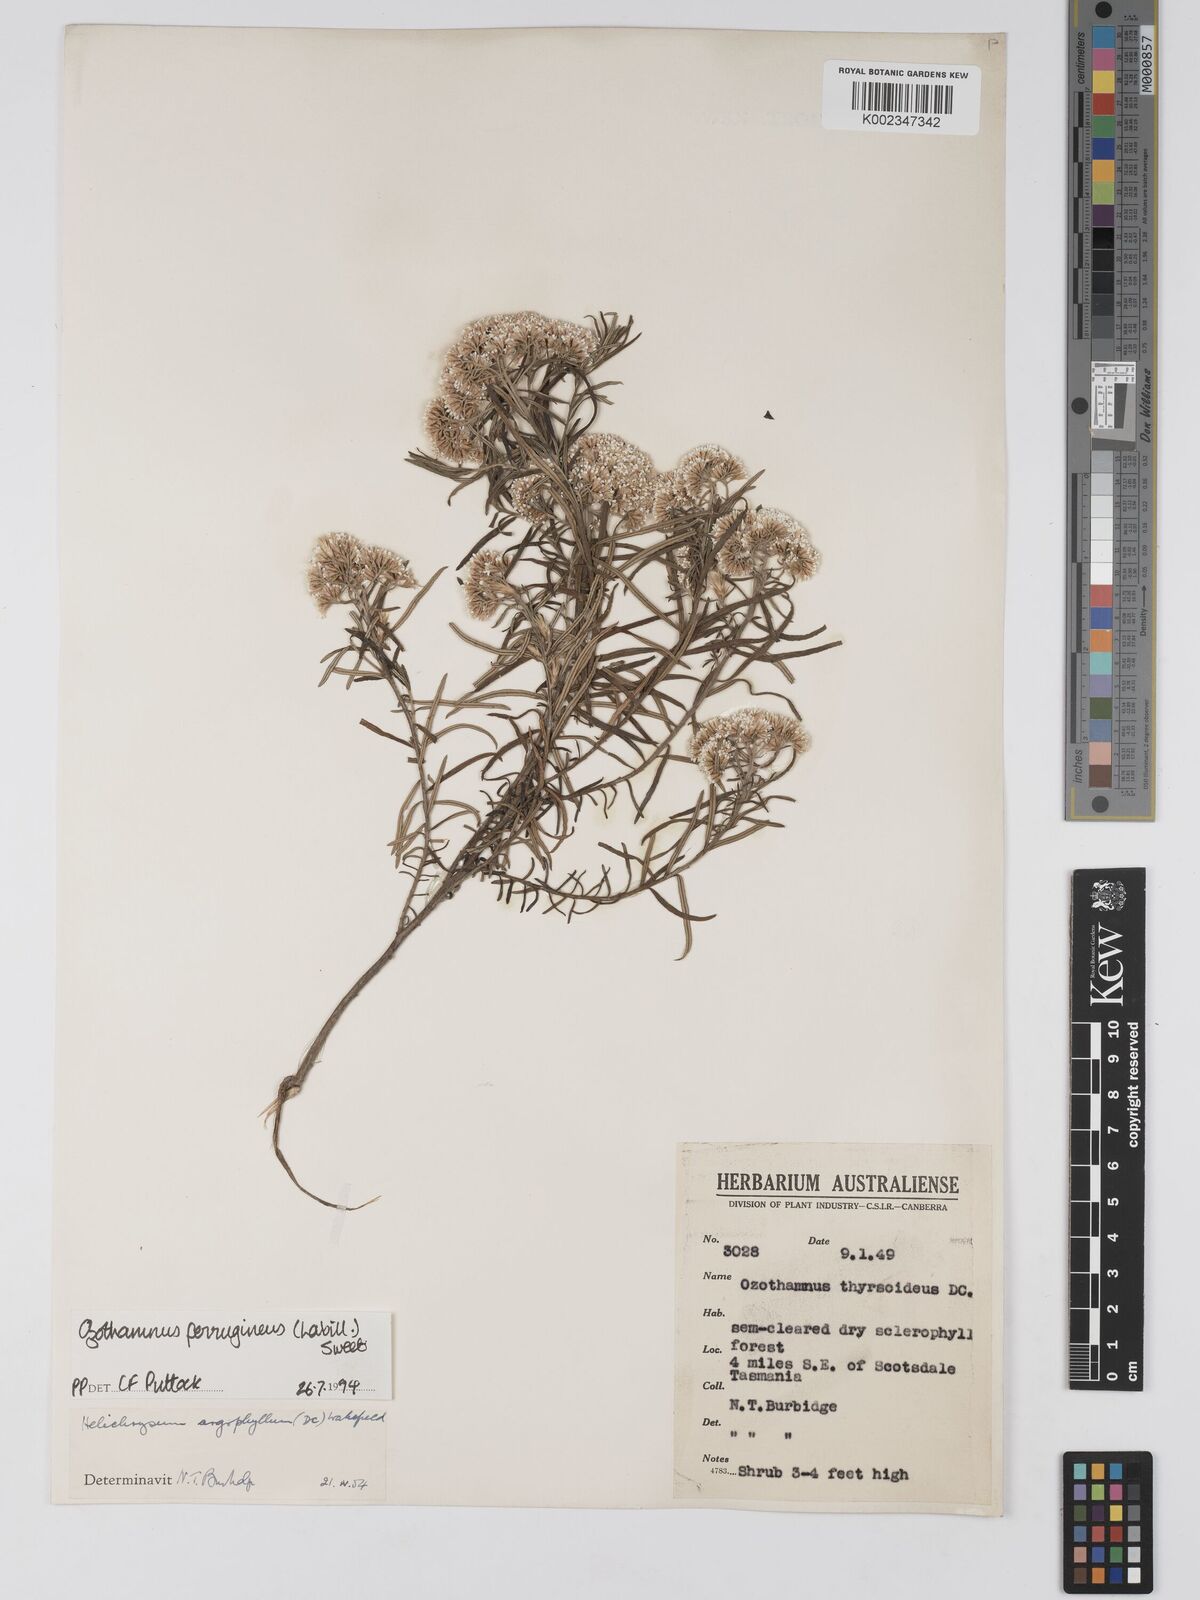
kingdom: Plantae
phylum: Tracheophyta
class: Magnoliopsida
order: Asterales
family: Asteraceae
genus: Ozothamnus
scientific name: Ozothamnus ferrugineus
